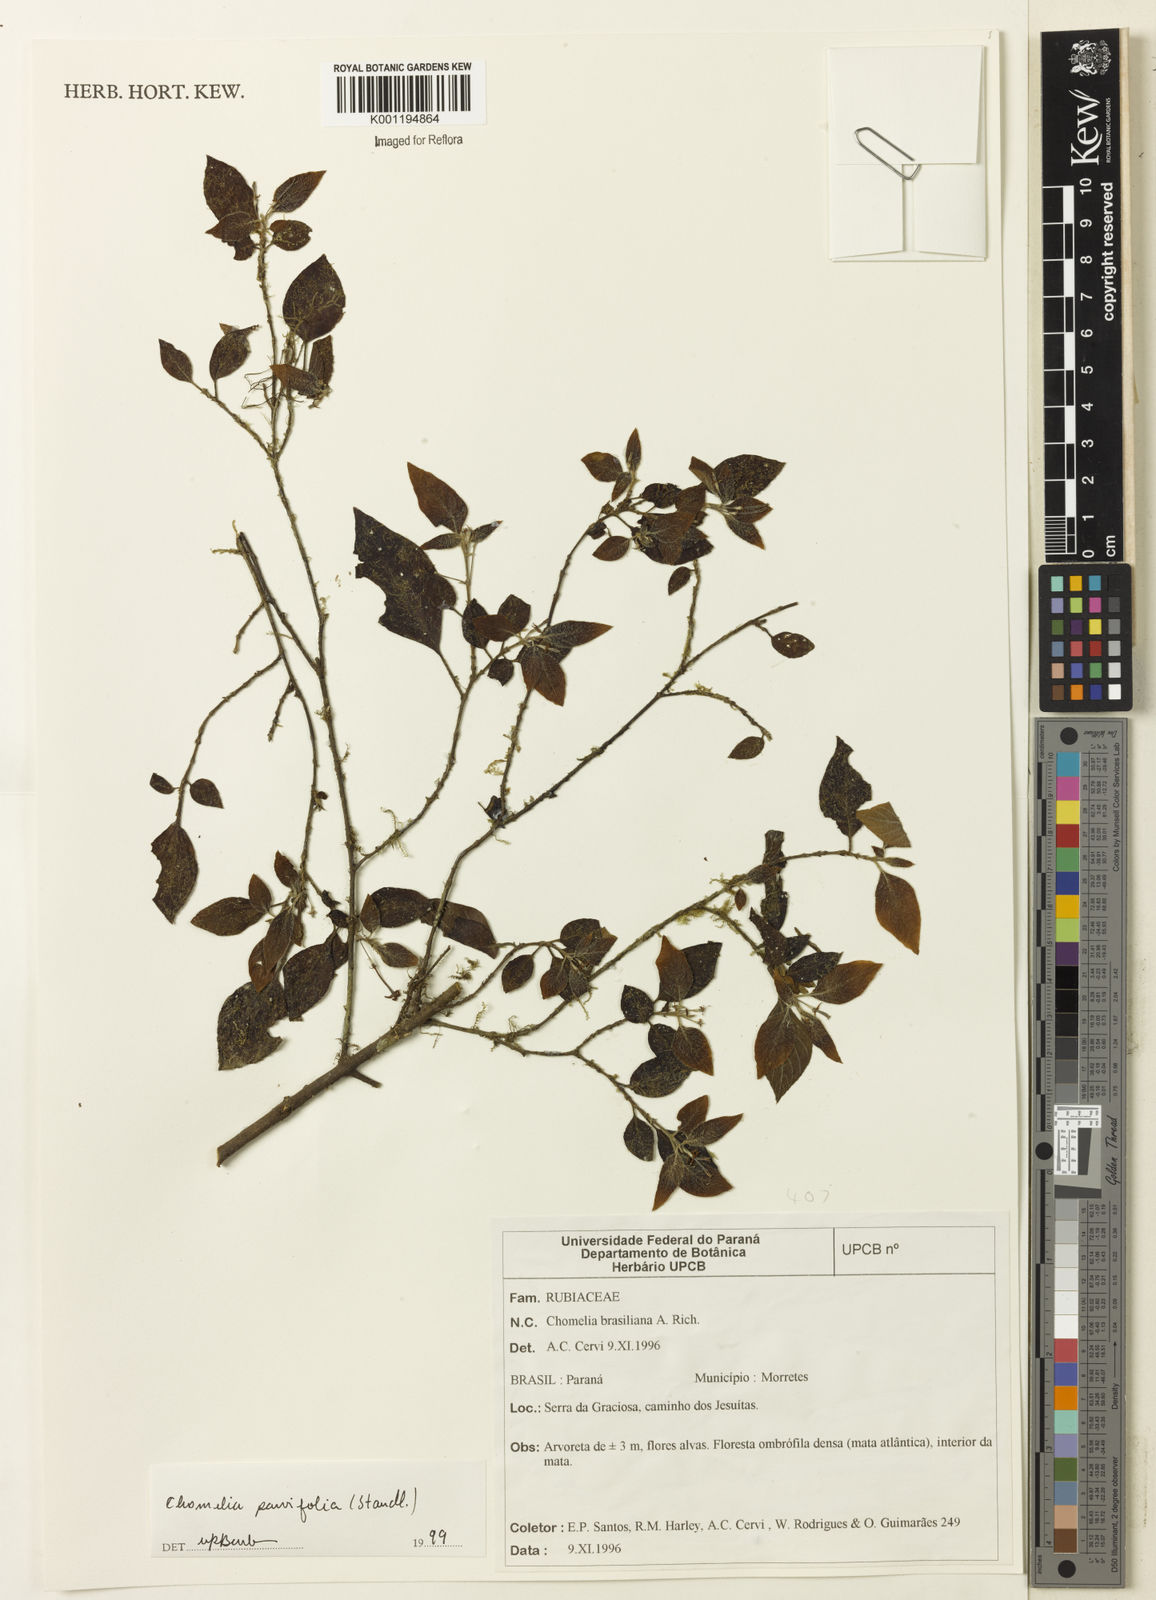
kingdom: Plantae
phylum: Tracheophyta
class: Magnoliopsida
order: Gentianales
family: Rubiaceae
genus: Chomelia
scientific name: Chomelia parvifolia
